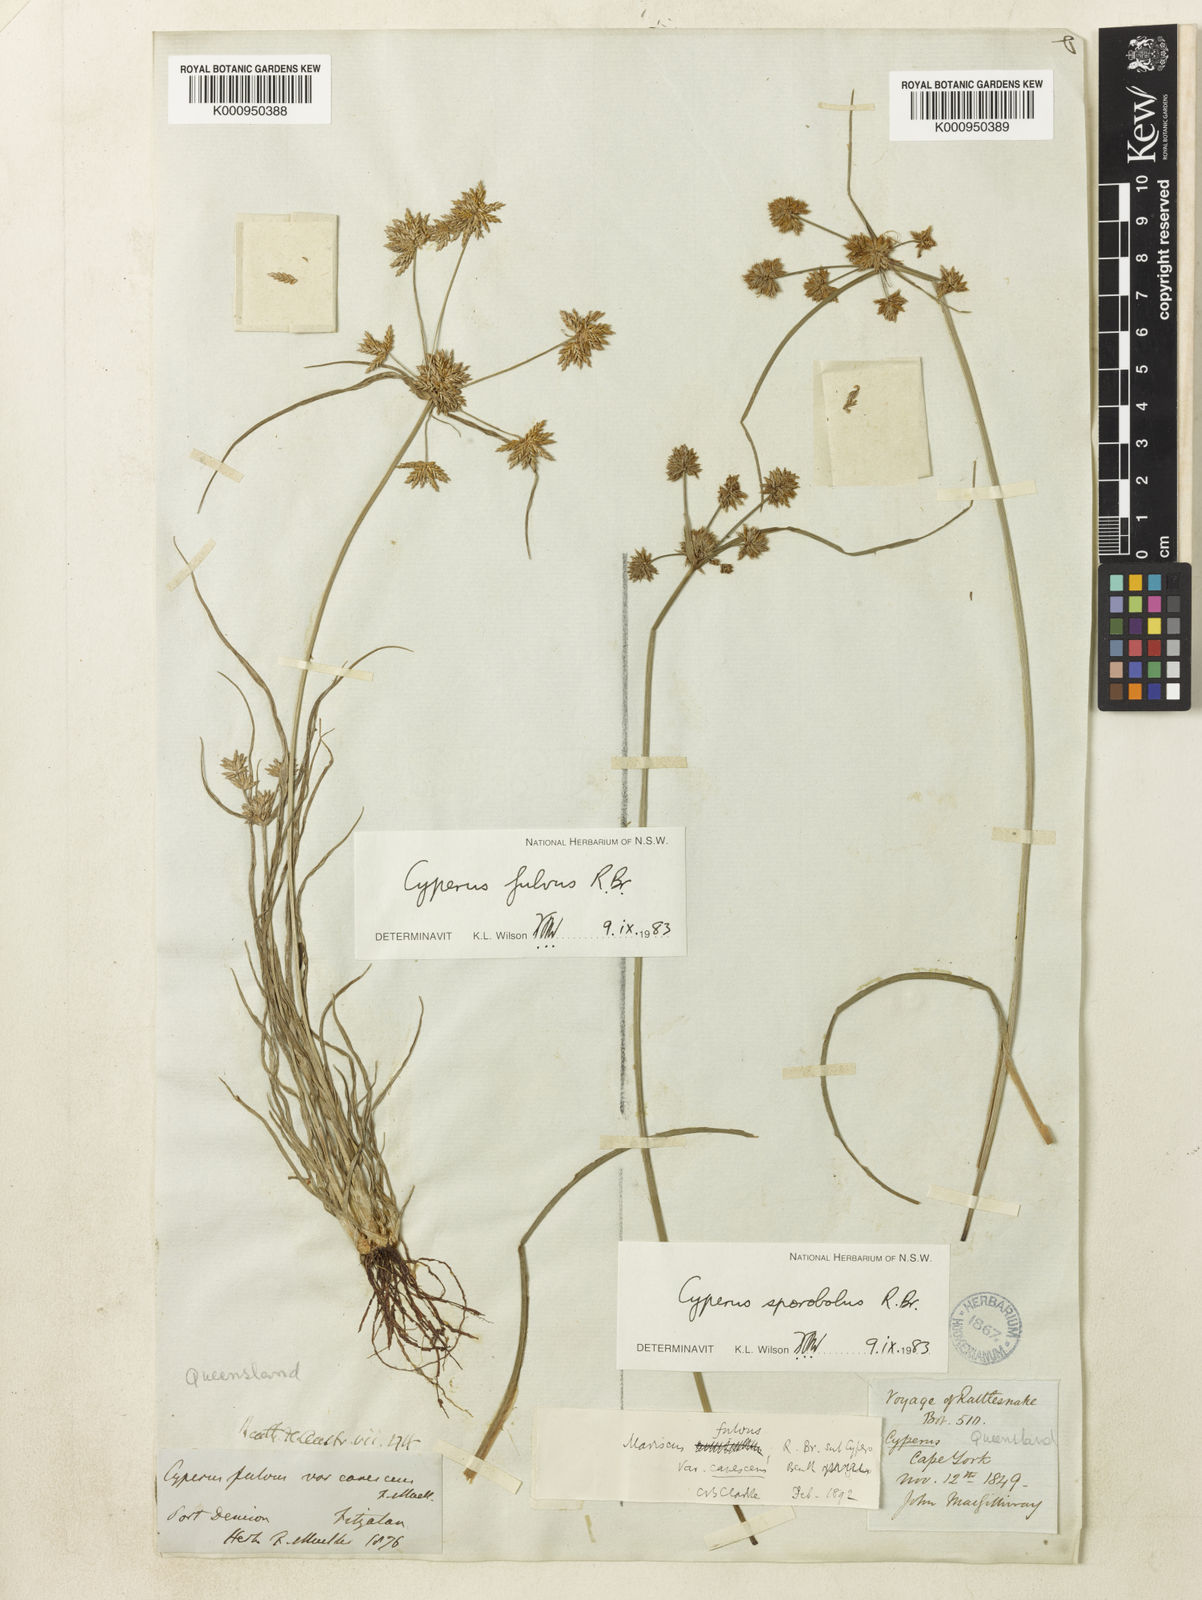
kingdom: Plantae
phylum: Tracheophyta
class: Liliopsida
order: Poales
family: Cyperaceae
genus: Cyperus
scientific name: Cyperus fulvus
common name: Sticky sedge
